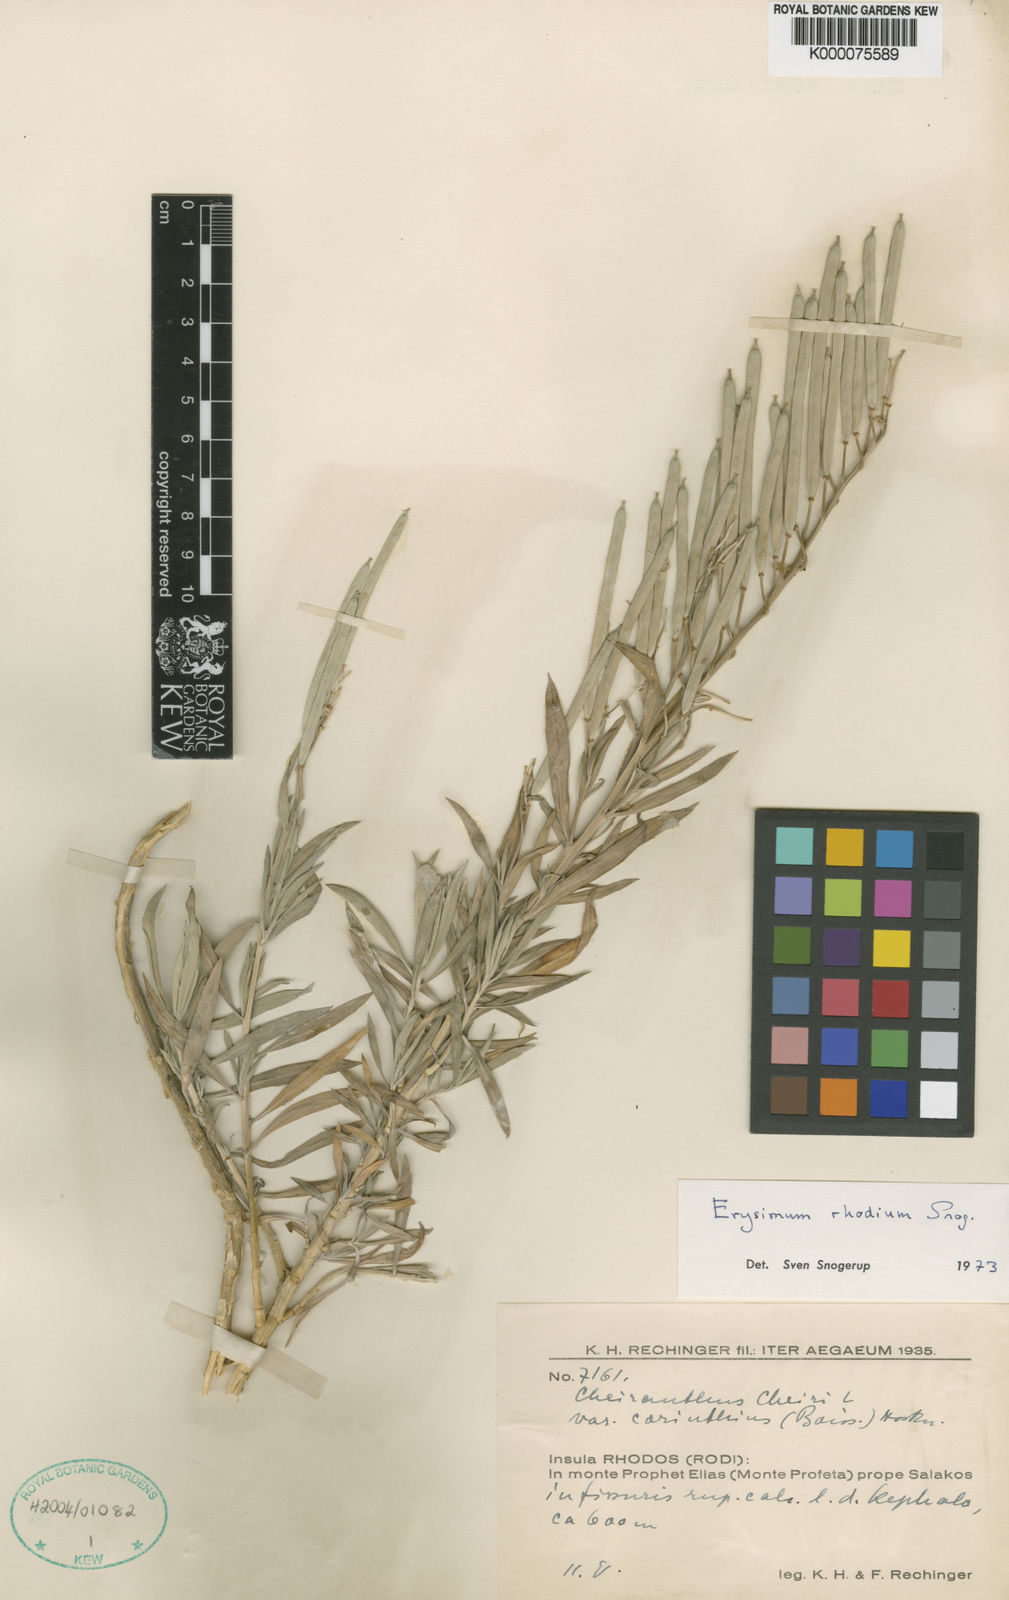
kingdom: Plantae
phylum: Tracheophyta
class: Magnoliopsida
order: Brassicales
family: Brassicaceae
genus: Erysimum
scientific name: Erysimum rhodium
